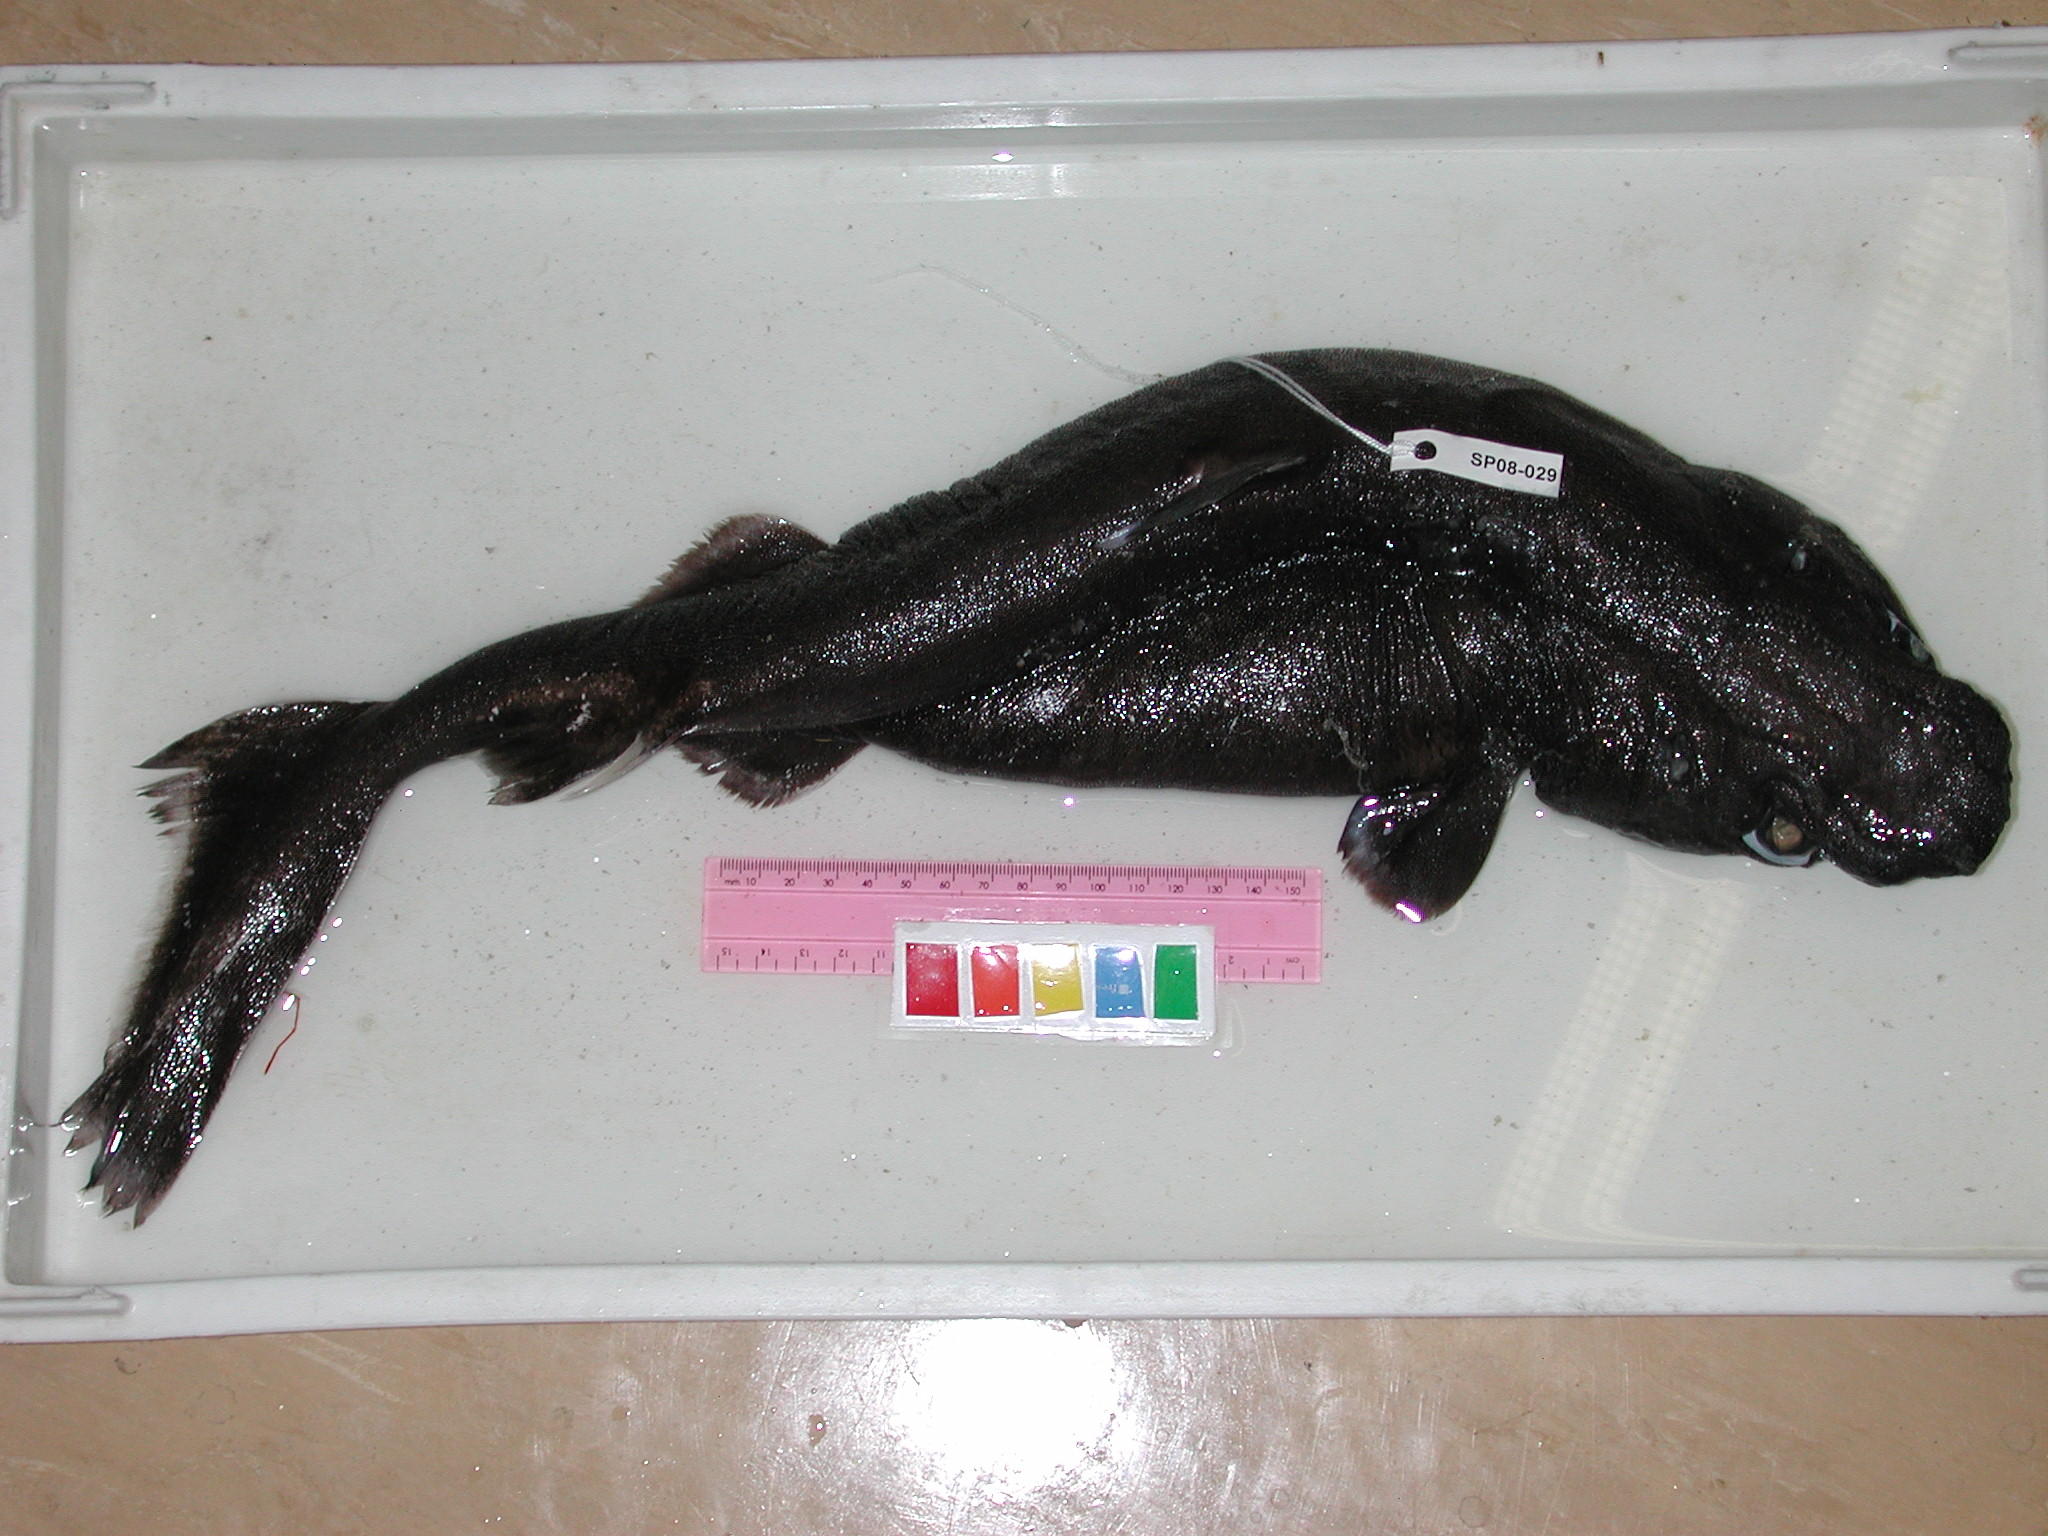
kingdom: Animalia
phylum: Chordata
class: Elasmobranchii
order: Squaliformes
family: Etmopteridae
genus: Etmopterus
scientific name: Etmopterus granulosus
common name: Southern lanternshark
